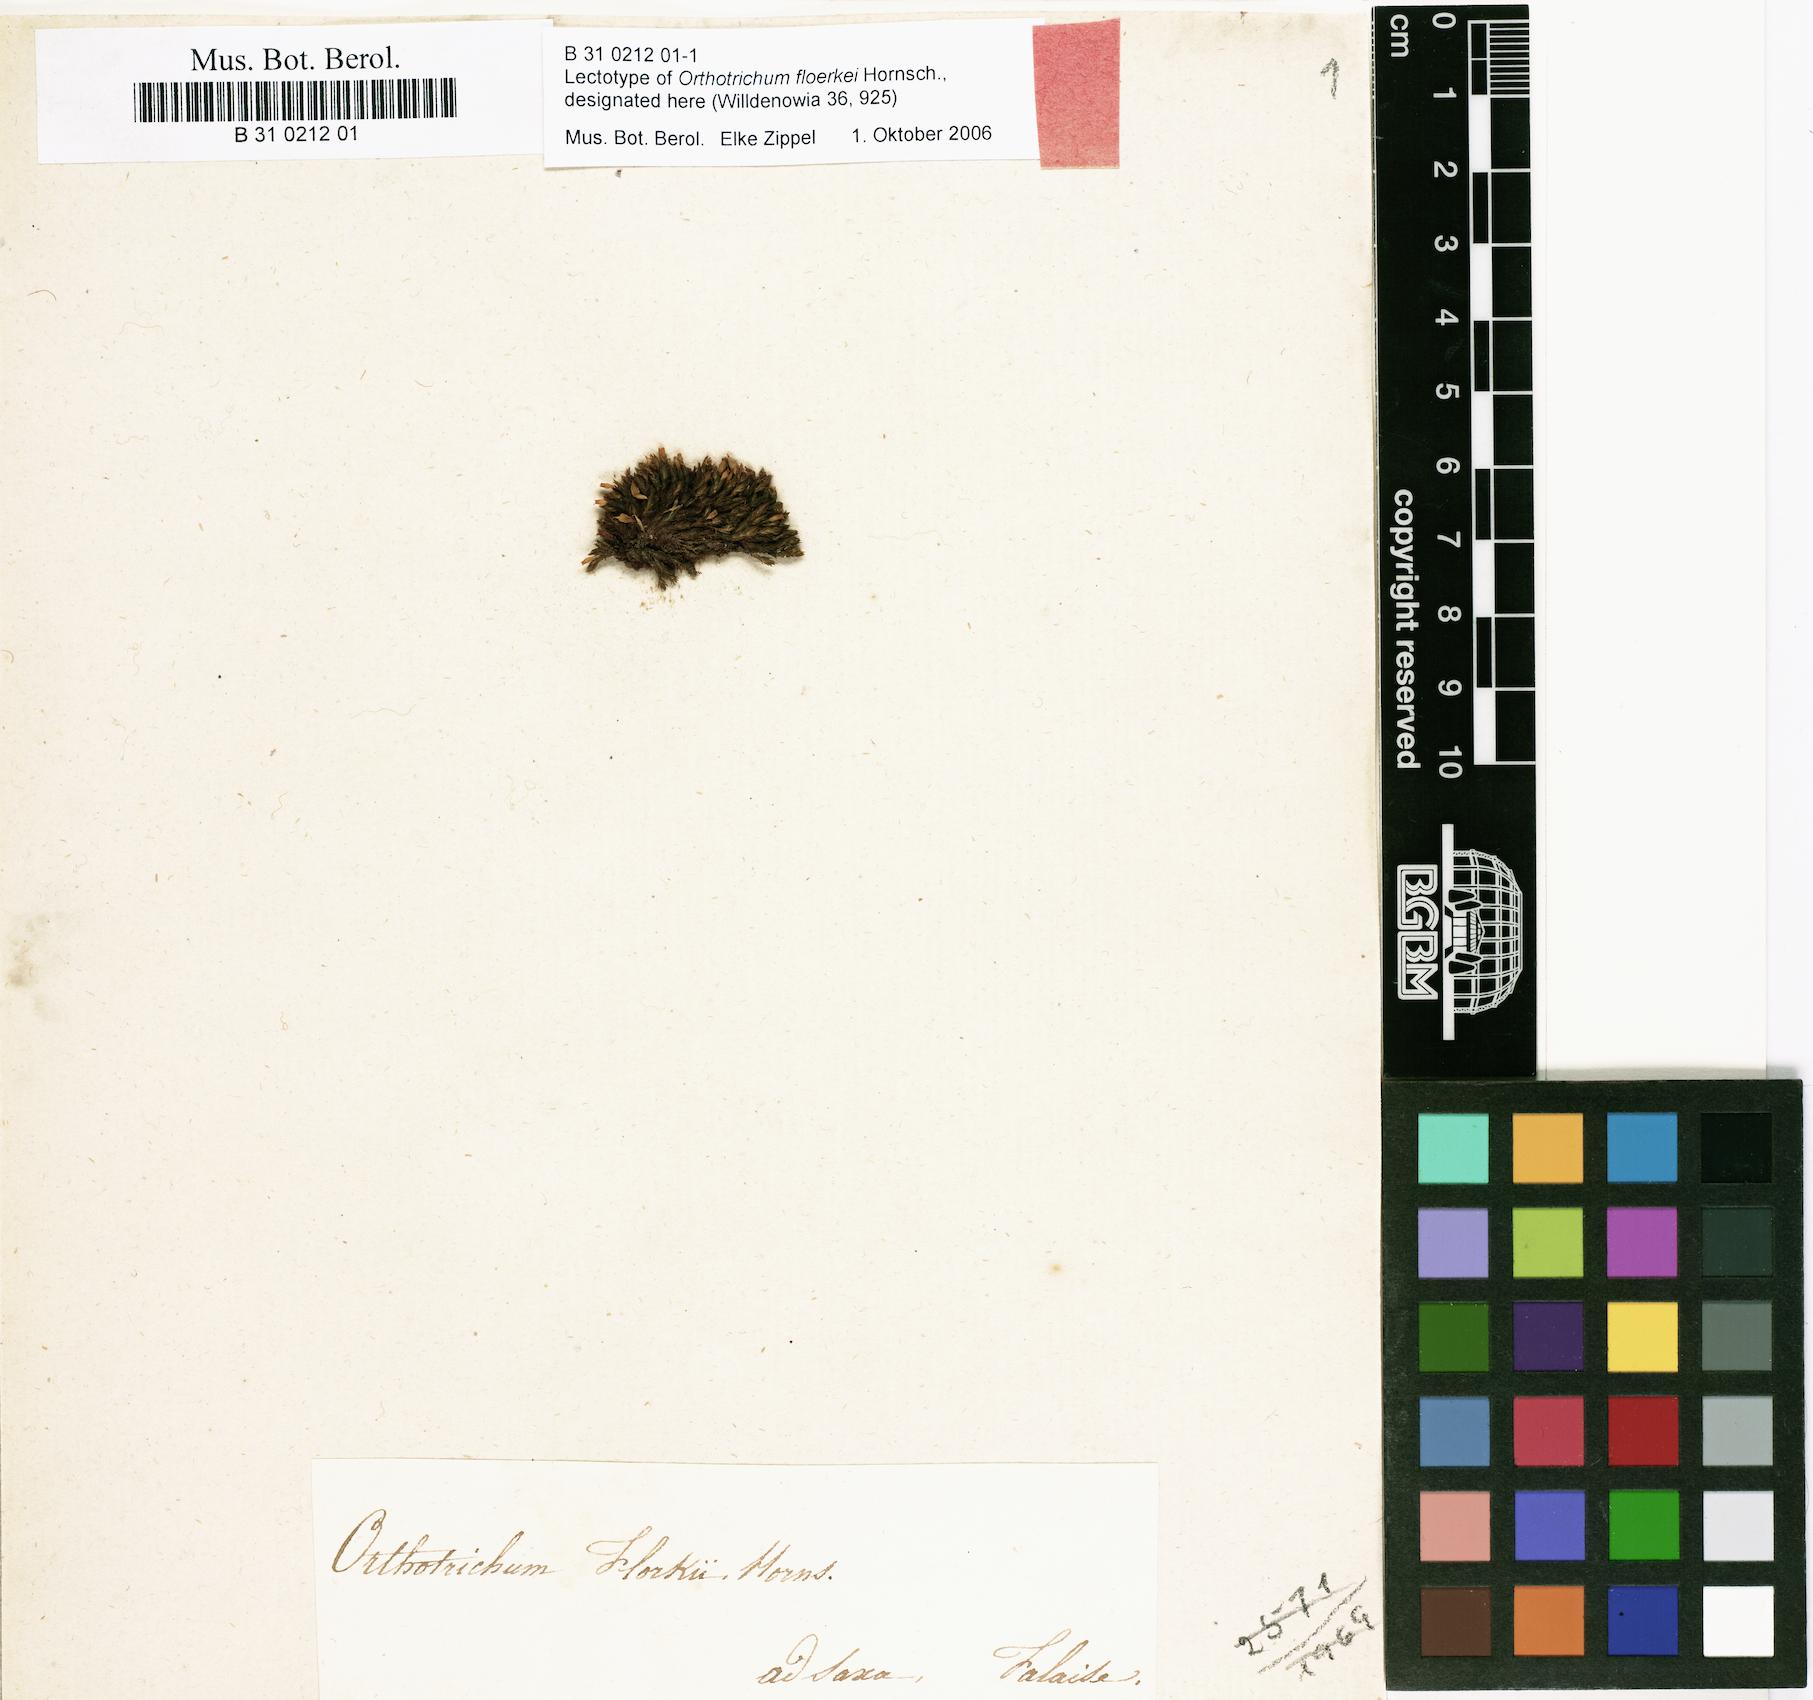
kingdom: Plantae
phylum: Bryophyta
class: Bryopsida
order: Orthotrichales
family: Orthotrichaceae
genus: Orthotrichum
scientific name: Orthotrichum cupulatum
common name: Hooded bristle-moss
